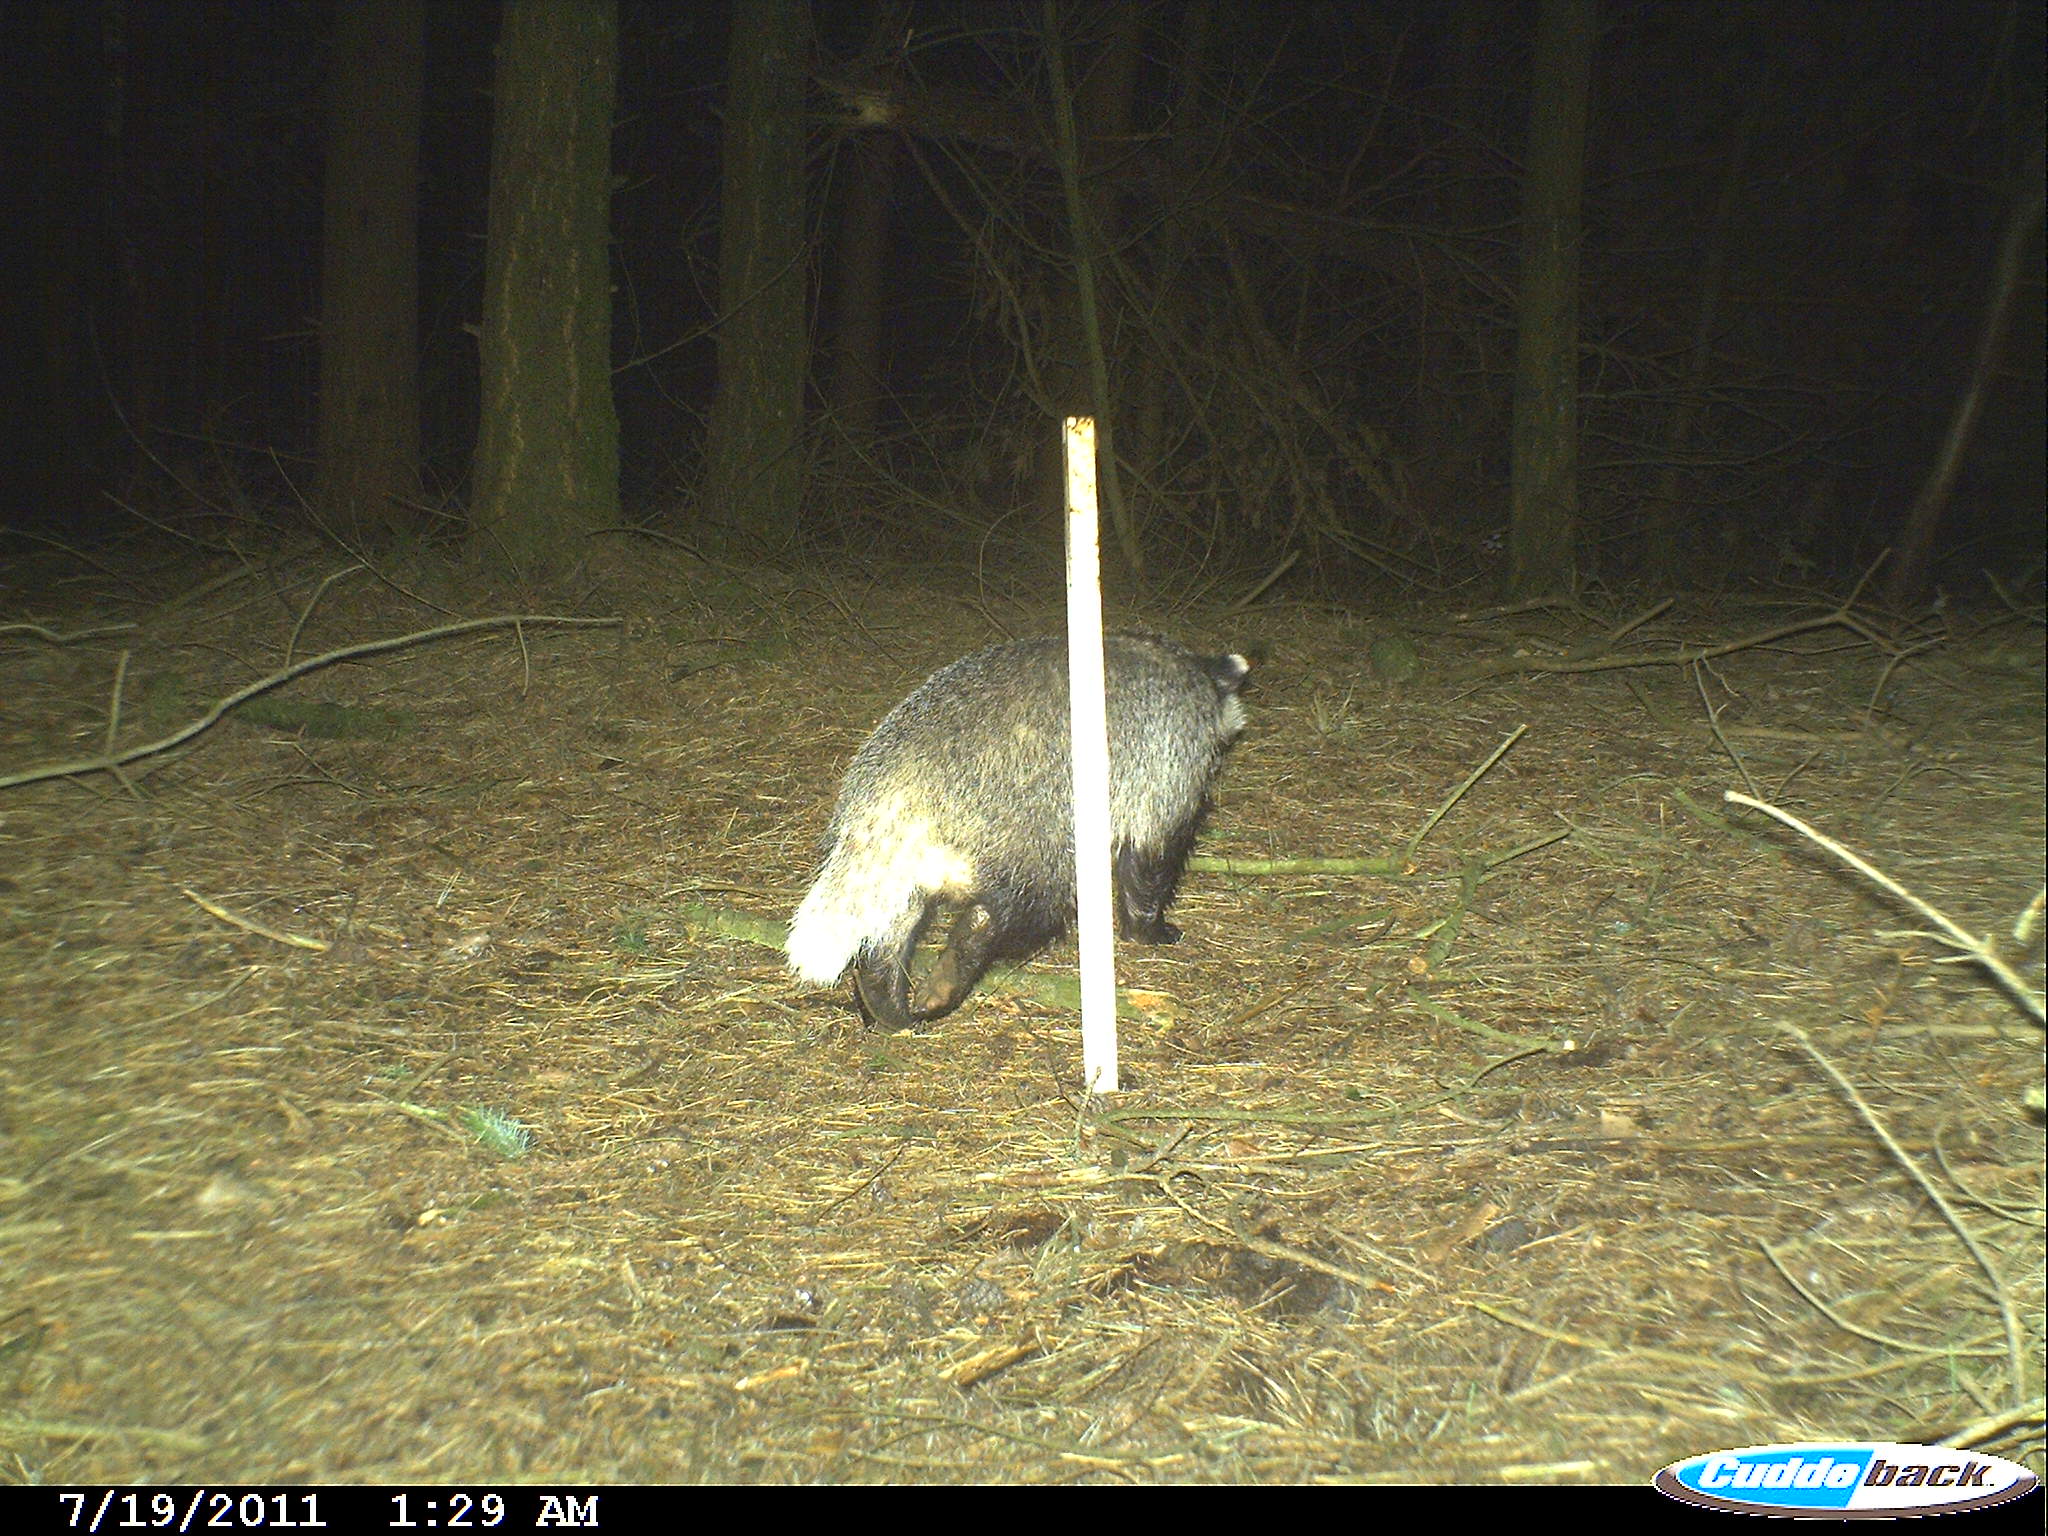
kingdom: Animalia
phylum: Chordata
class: Mammalia
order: Carnivora
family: Mustelidae
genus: Meles
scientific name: Meles meles
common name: Eurasian badger
